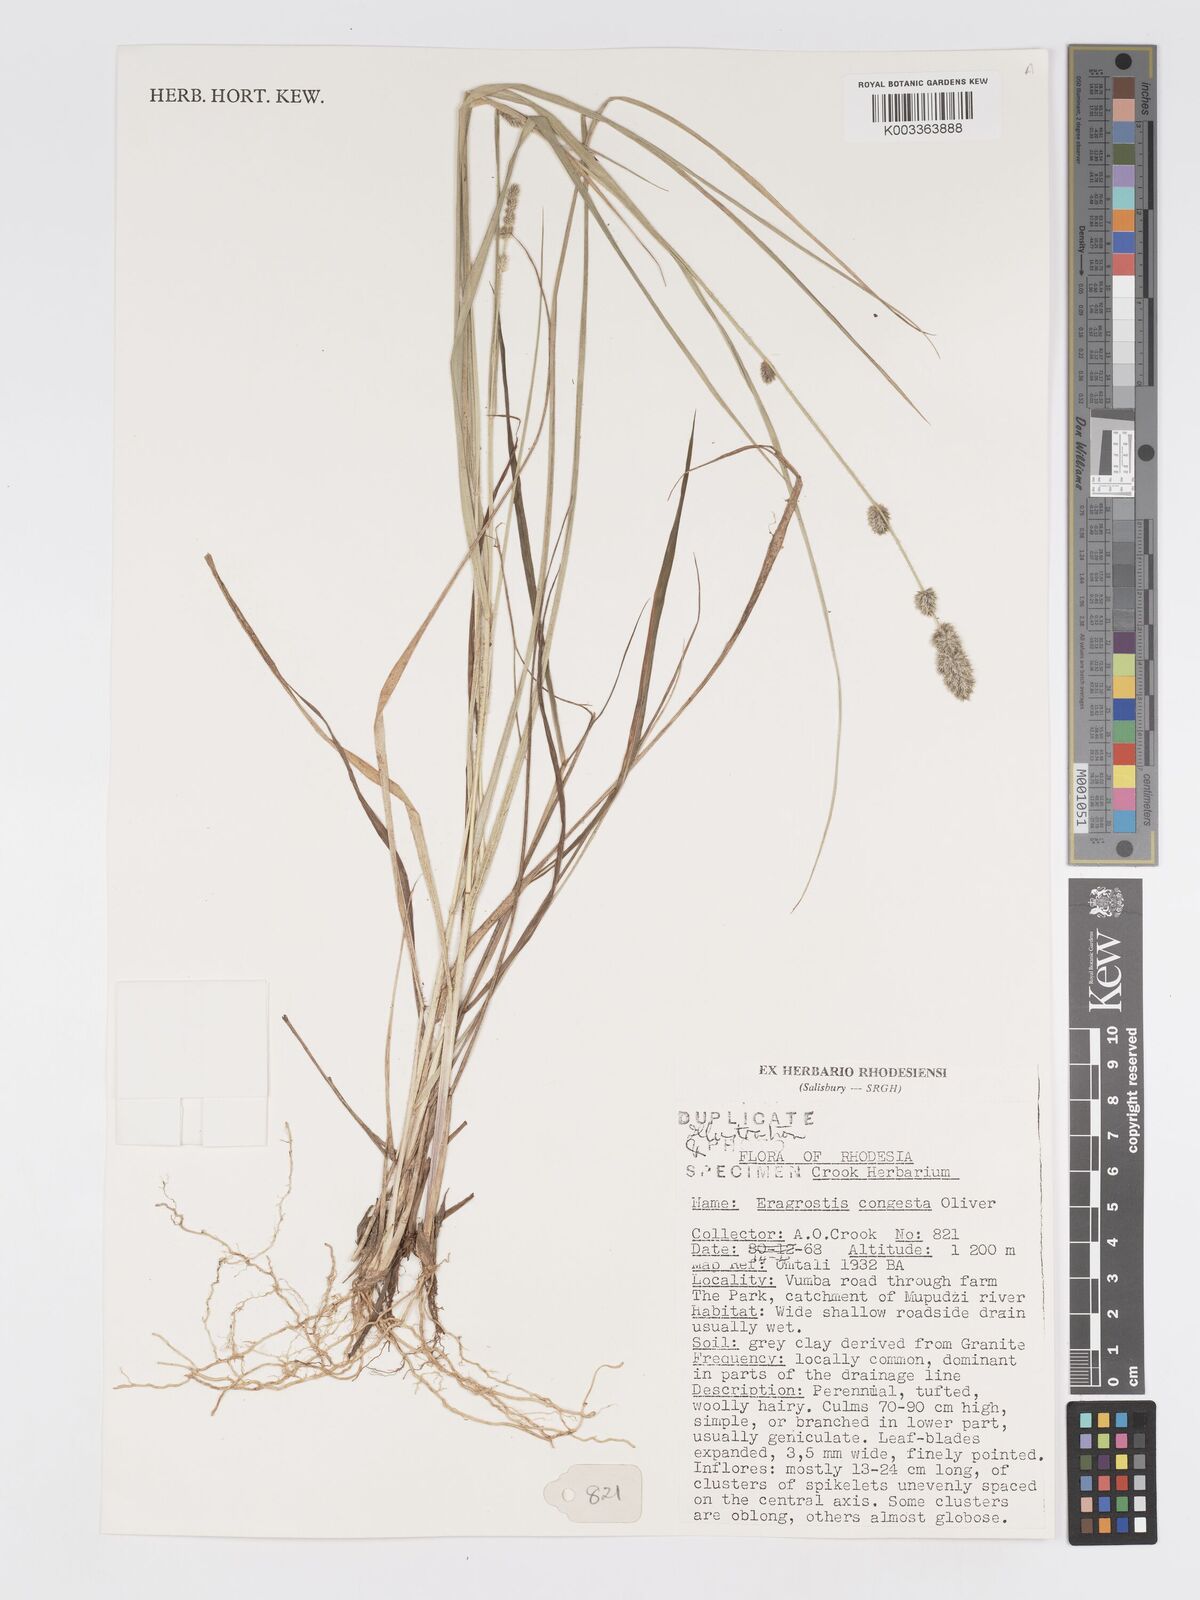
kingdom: Plantae
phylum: Tracheophyta
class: Liliopsida
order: Poales
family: Poaceae
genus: Eragrostis
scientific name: Eragrostis congesta
